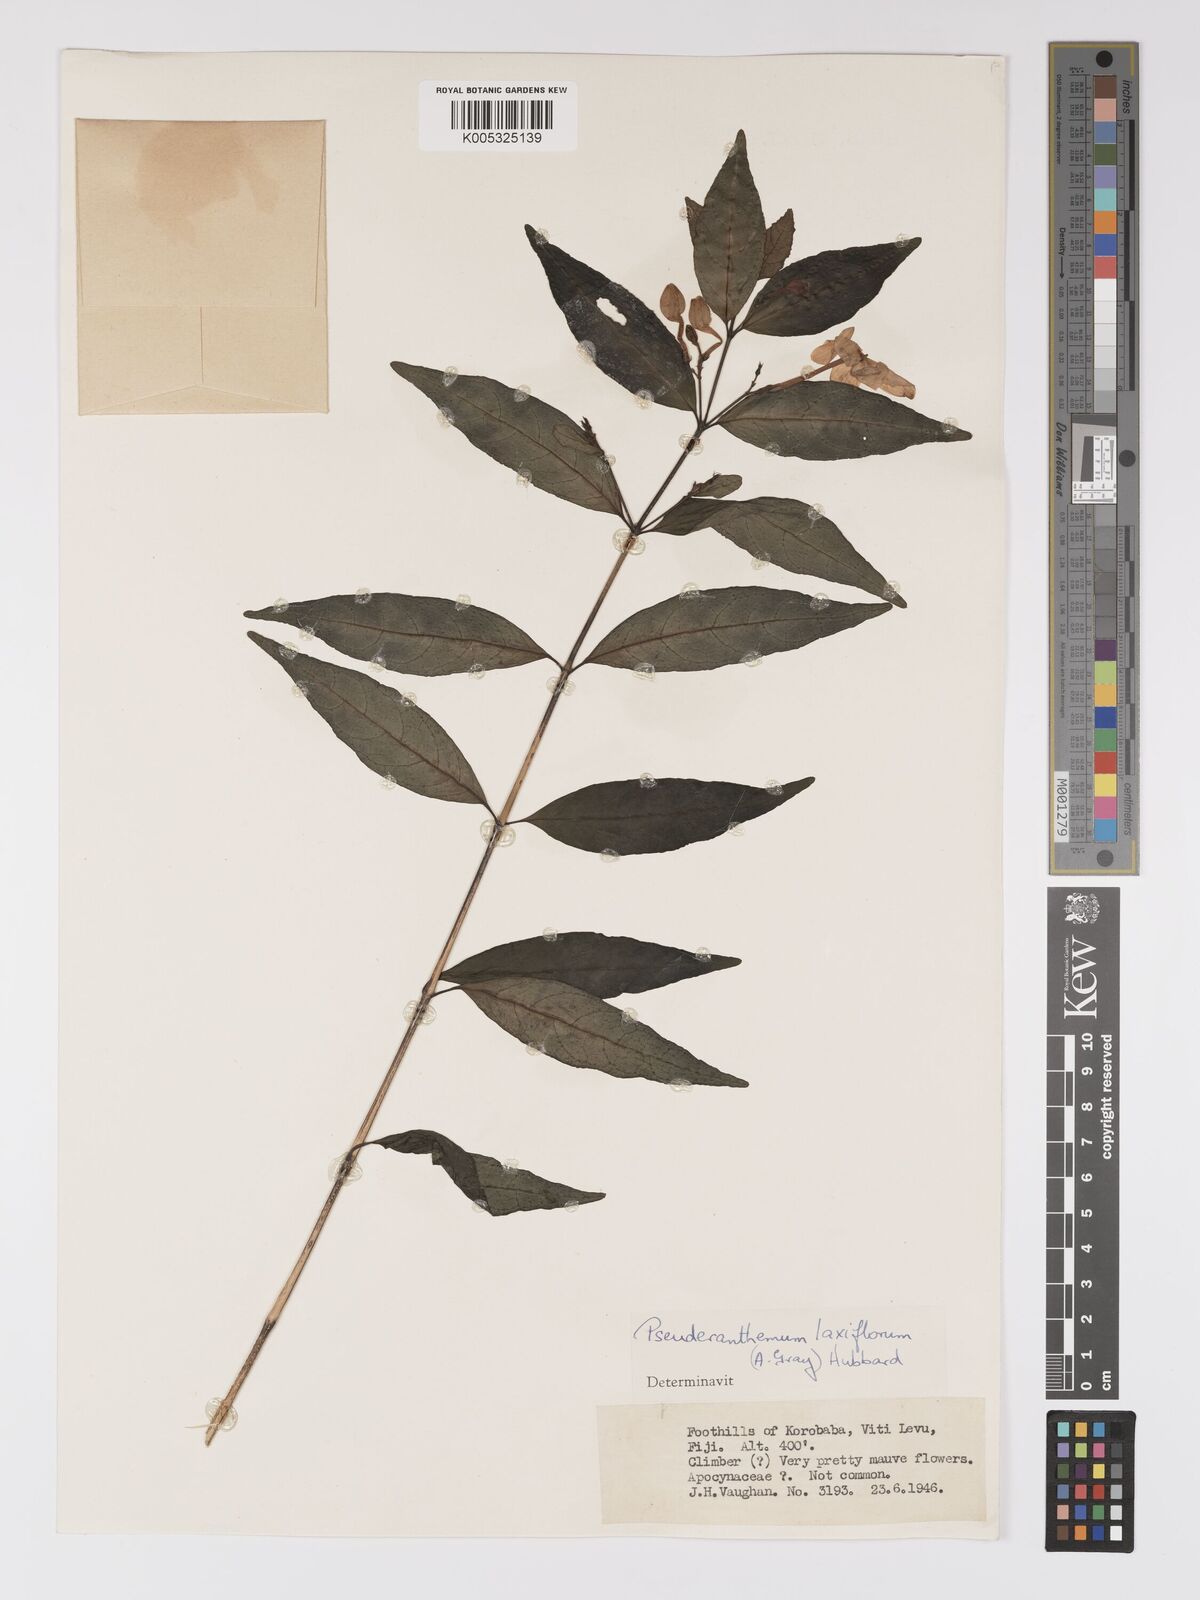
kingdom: Plantae
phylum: Tracheophyta
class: Magnoliopsida
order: Lamiales
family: Acanthaceae
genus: Pseuderanthemum
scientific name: Pseuderanthemum laxiflorum
